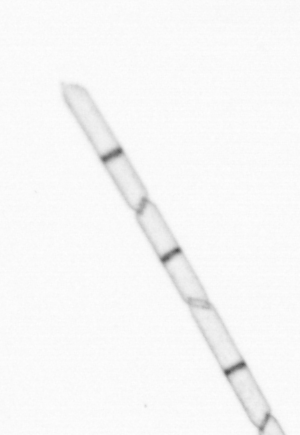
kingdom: Chromista
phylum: Ochrophyta
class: Bacillariophyceae
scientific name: Bacillariophyceae
